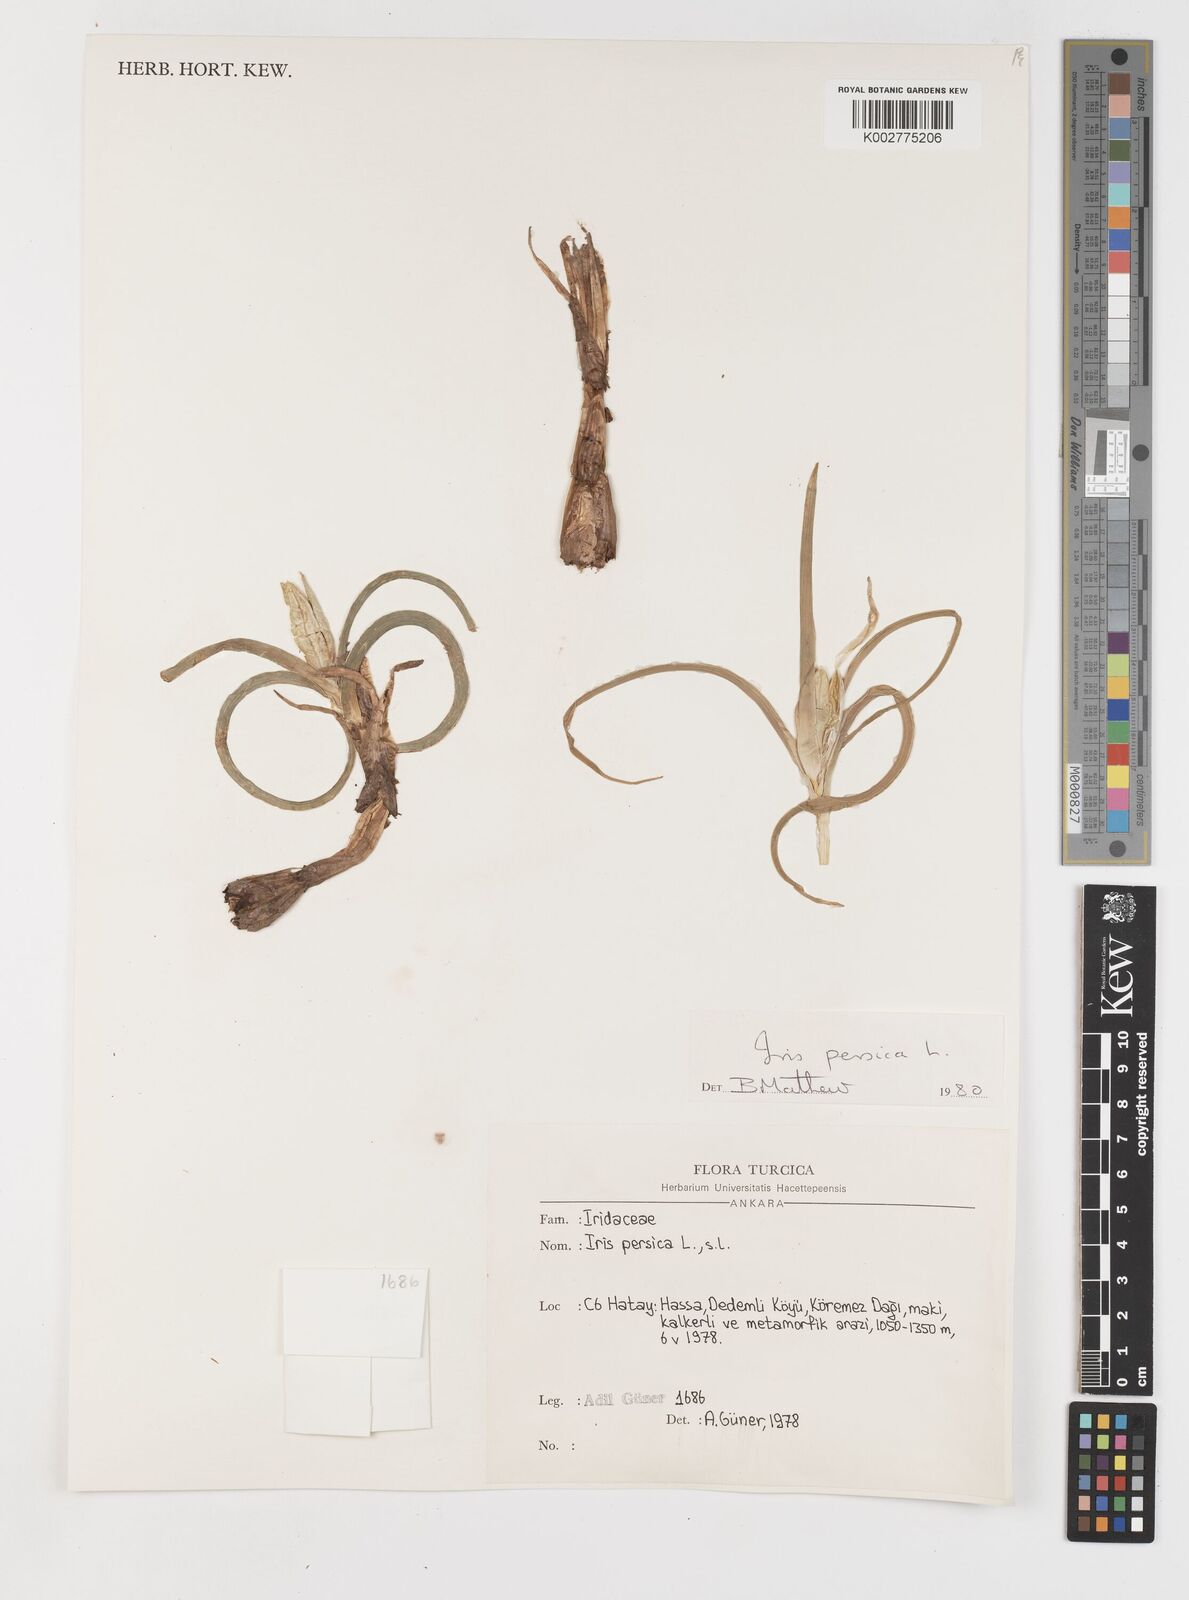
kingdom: Plantae
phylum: Tracheophyta
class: Liliopsida
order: Asparagales
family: Iridaceae
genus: Iris
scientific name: Iris persica
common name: Persian iris
